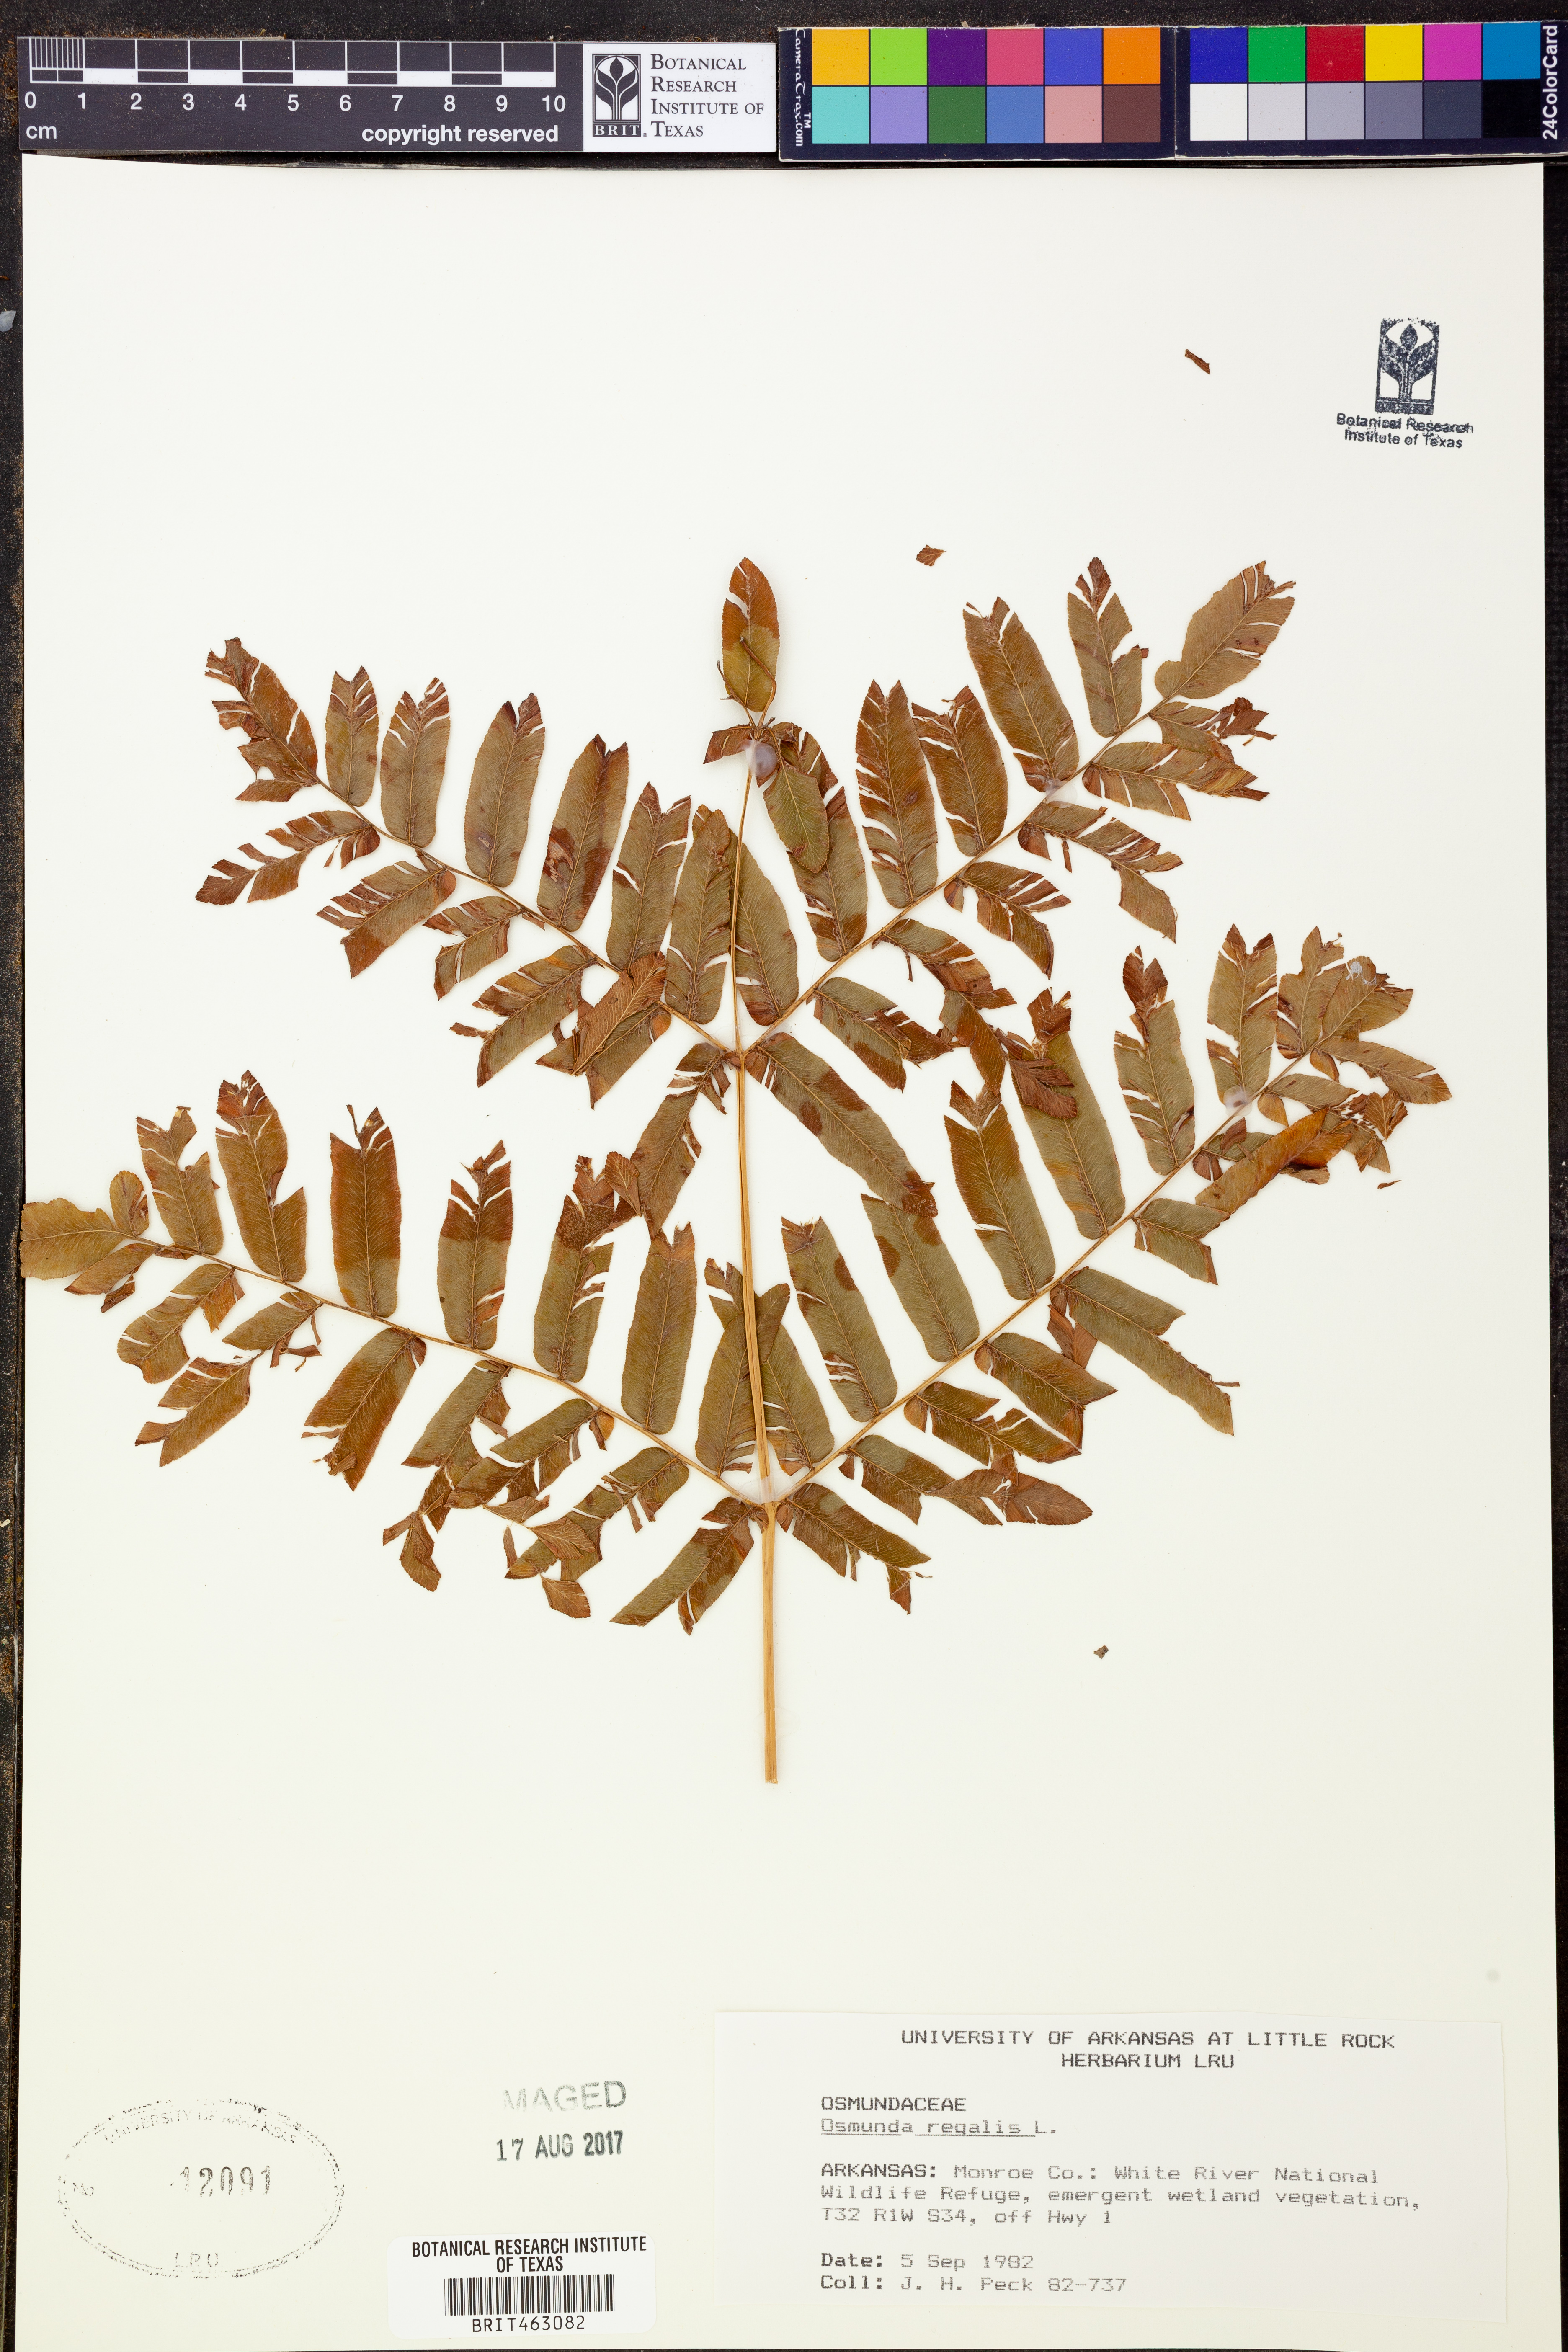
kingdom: Plantae
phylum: Tracheophyta
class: Polypodiopsida
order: Osmundales
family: Osmundaceae
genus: Osmunda
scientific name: Osmunda regalis
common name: Royal fern
